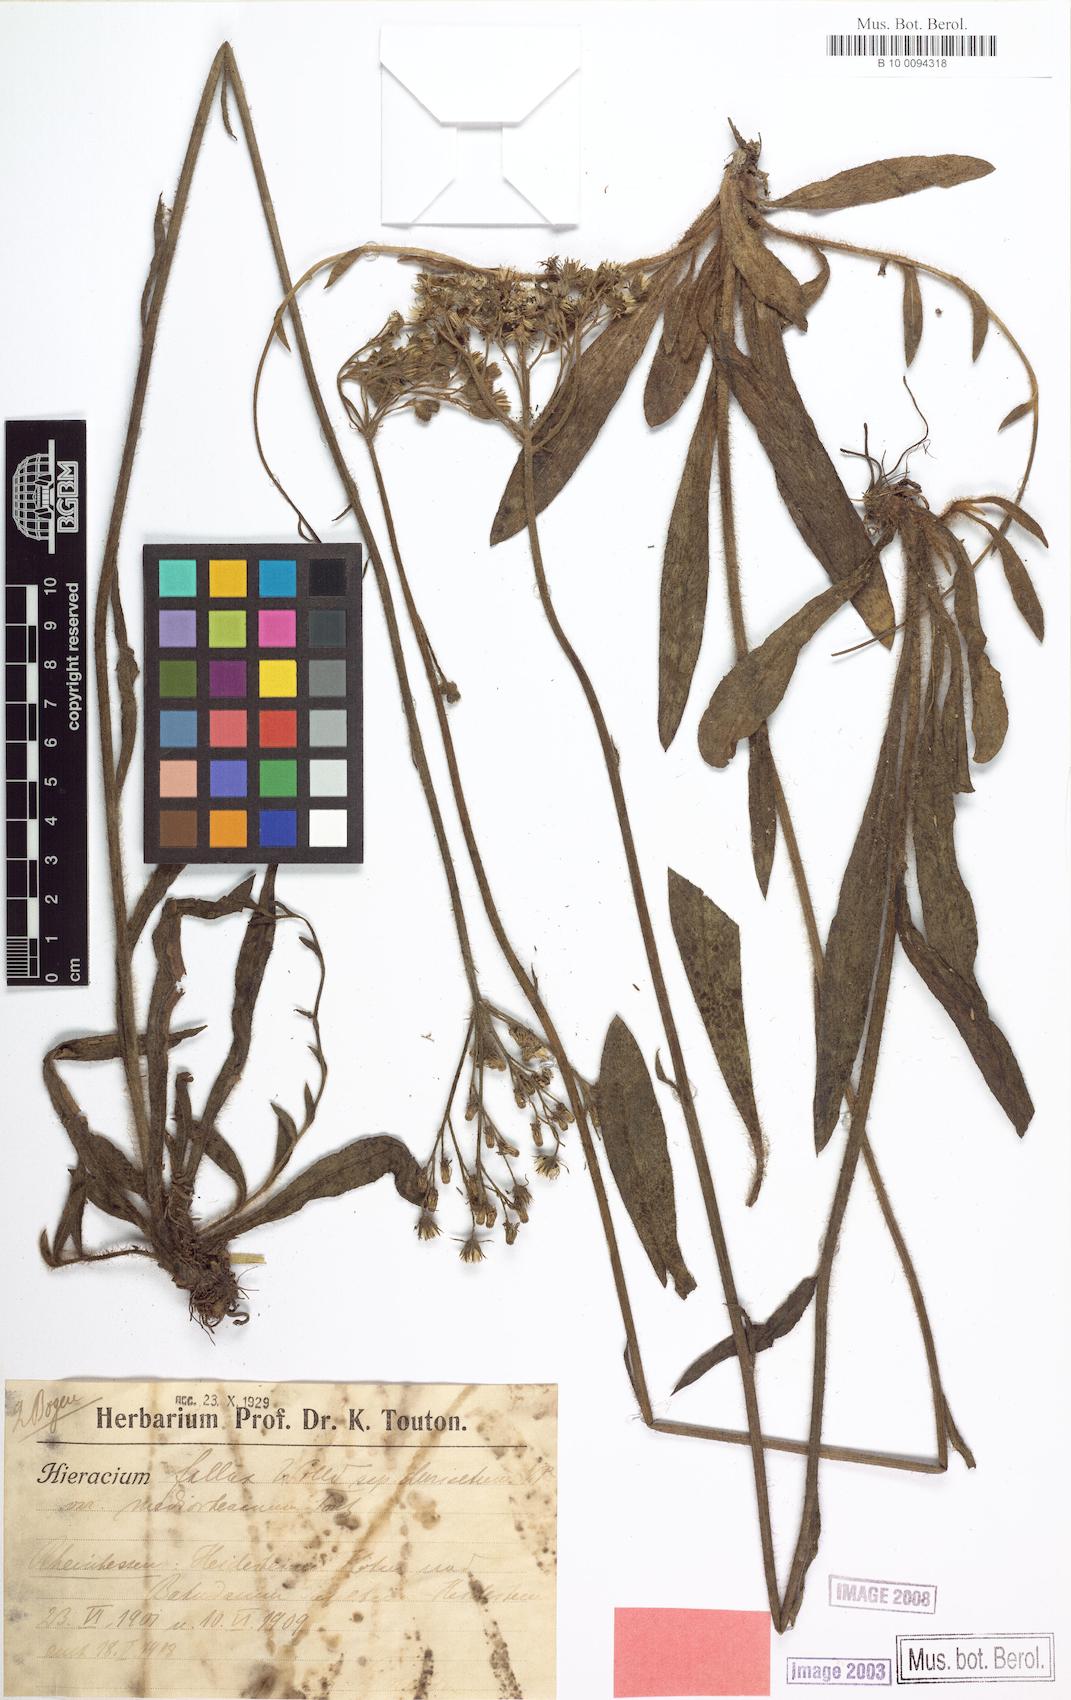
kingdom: Plantae
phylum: Tracheophyta
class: Magnoliopsida
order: Asterales
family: Asteraceae
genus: Hieracium
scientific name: Hieracium fallax
